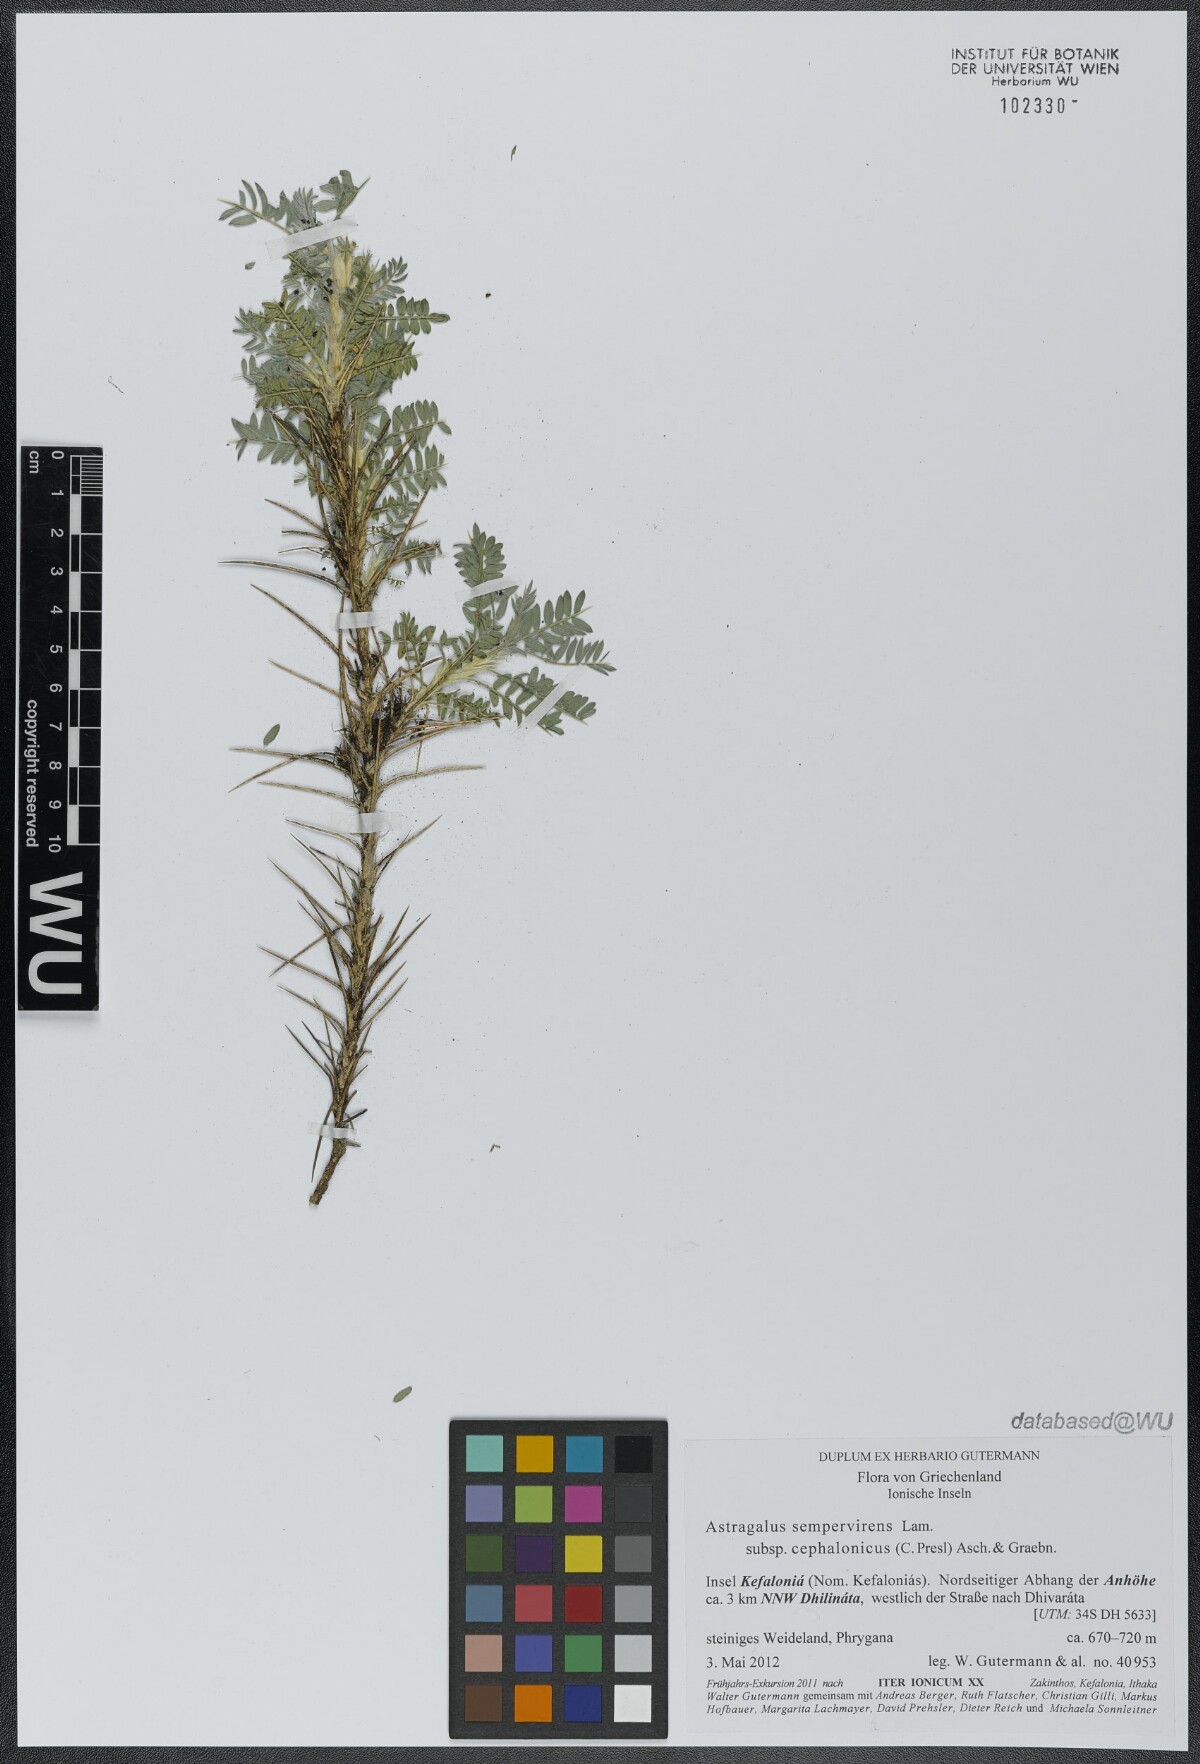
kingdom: Plantae
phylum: Tracheophyta
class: Magnoliopsida
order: Fabales
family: Fabaceae
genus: Astragalus
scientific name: Astragalus sempervirens
